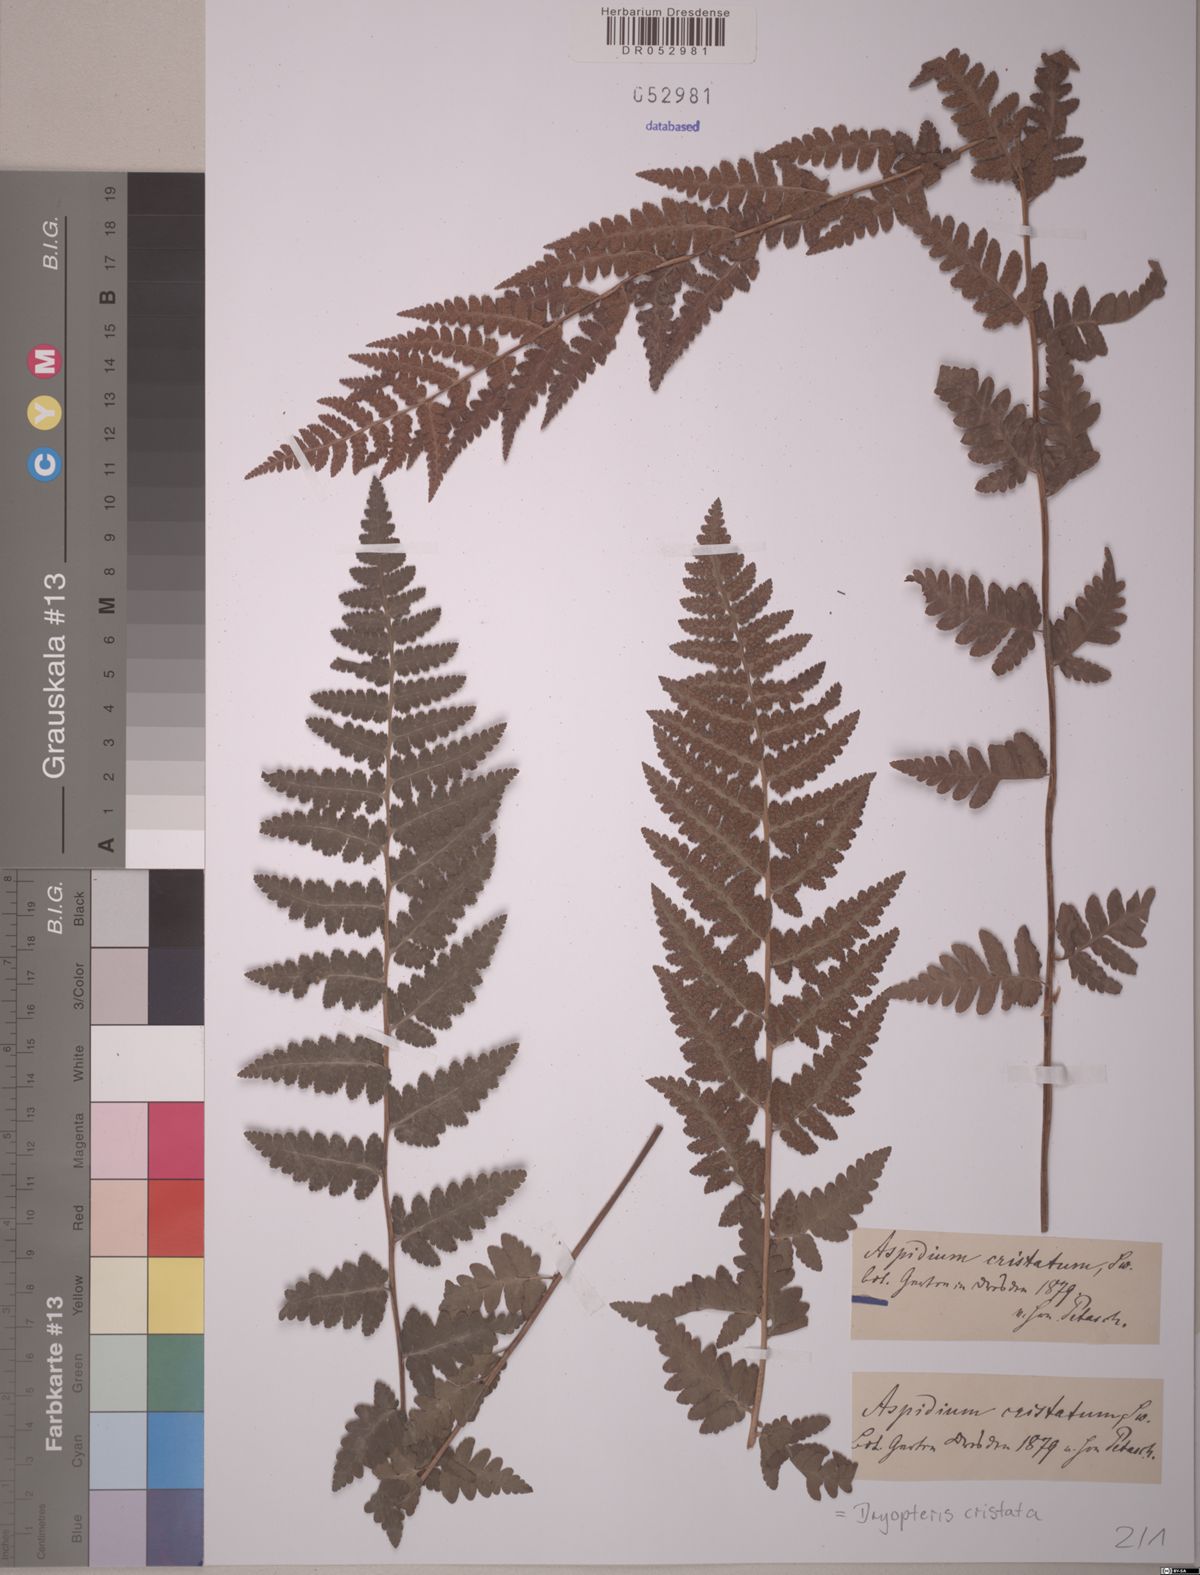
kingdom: Plantae
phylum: Tracheophyta
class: Polypodiopsida
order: Polypodiales
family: Dryopteridaceae
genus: Dryopteris
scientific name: Dryopteris cristata
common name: Crested wood fern
